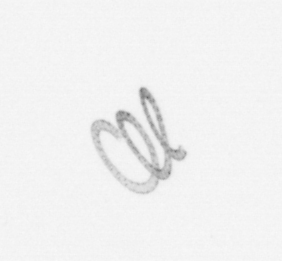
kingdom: Chromista
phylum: Ochrophyta
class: Bacillariophyceae
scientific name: Bacillariophyceae
